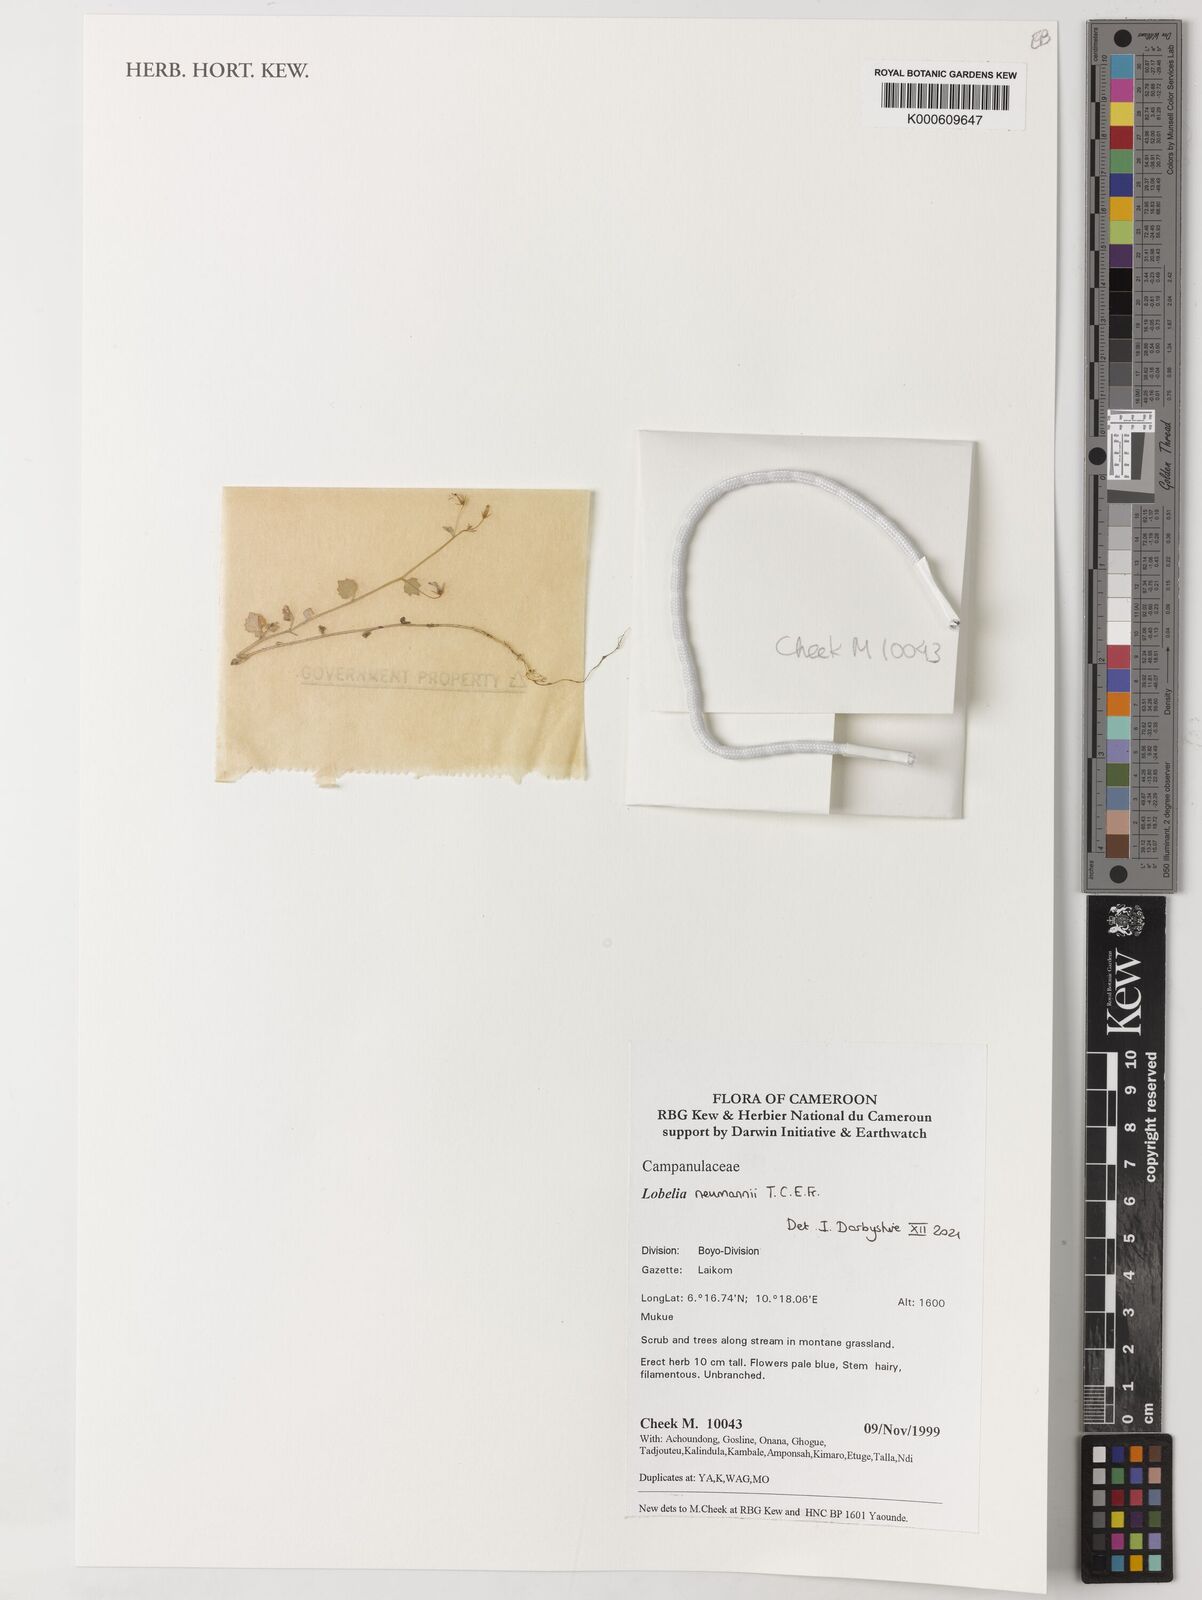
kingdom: Plantae
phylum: Tracheophyta
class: Magnoliopsida
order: Asterales
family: Campanulaceae
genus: Lobelia
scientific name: Lobelia neumannii
